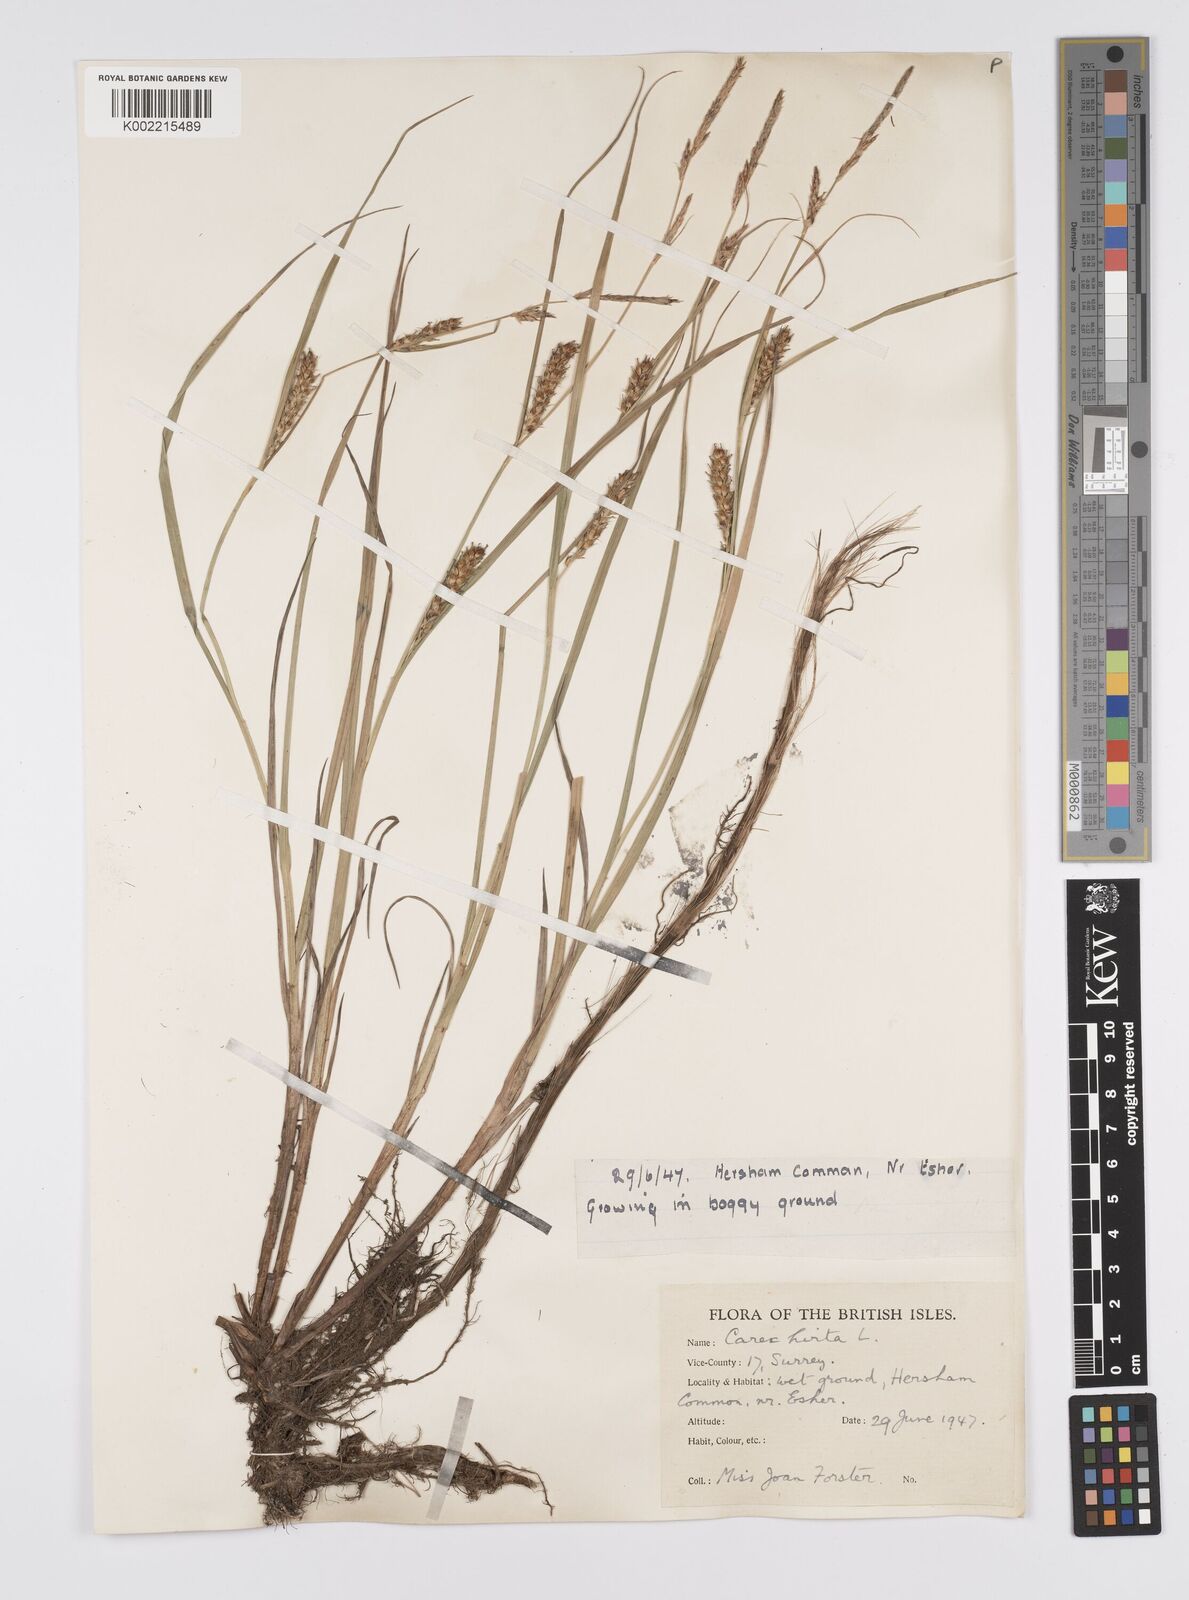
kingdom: Plantae
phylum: Tracheophyta
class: Liliopsida
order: Poales
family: Cyperaceae
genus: Carex
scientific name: Carex hirta
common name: Hairy sedge
